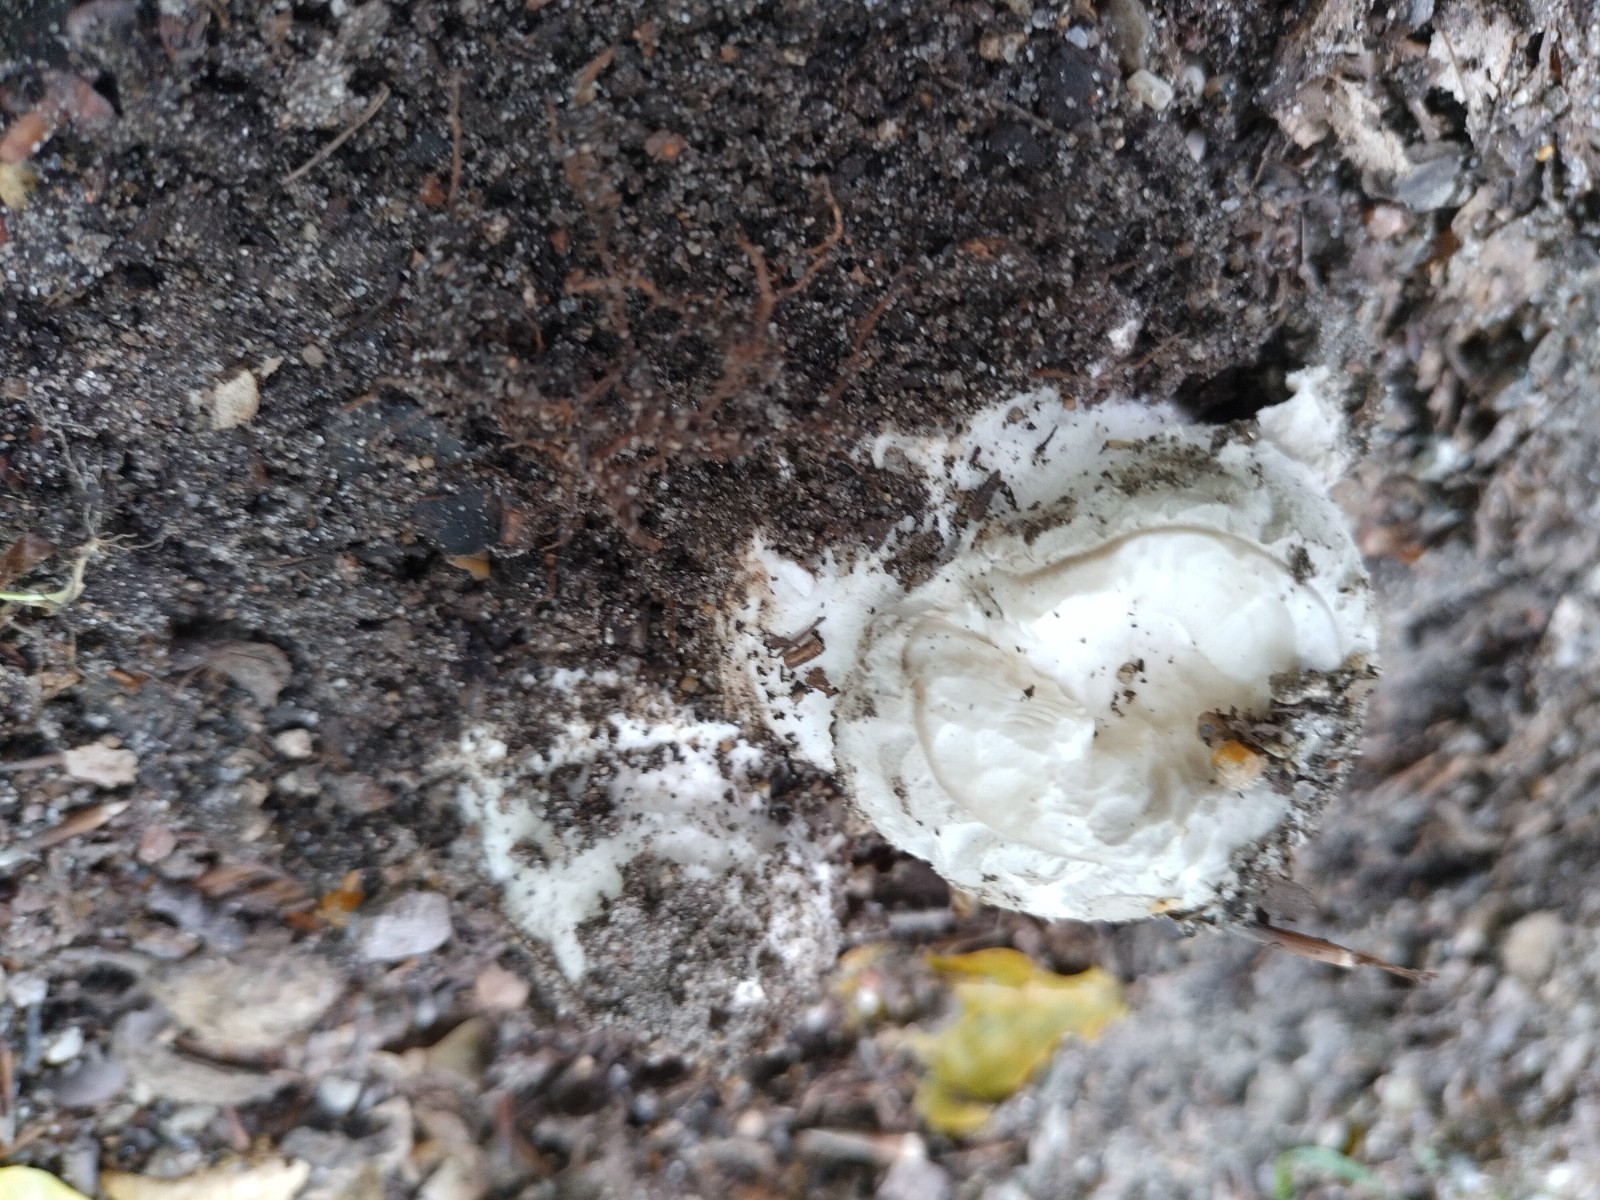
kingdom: Fungi
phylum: Basidiomycota
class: Agaricomycetes
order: Agaricales
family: Amanitaceae
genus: Amanita
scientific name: Amanita
